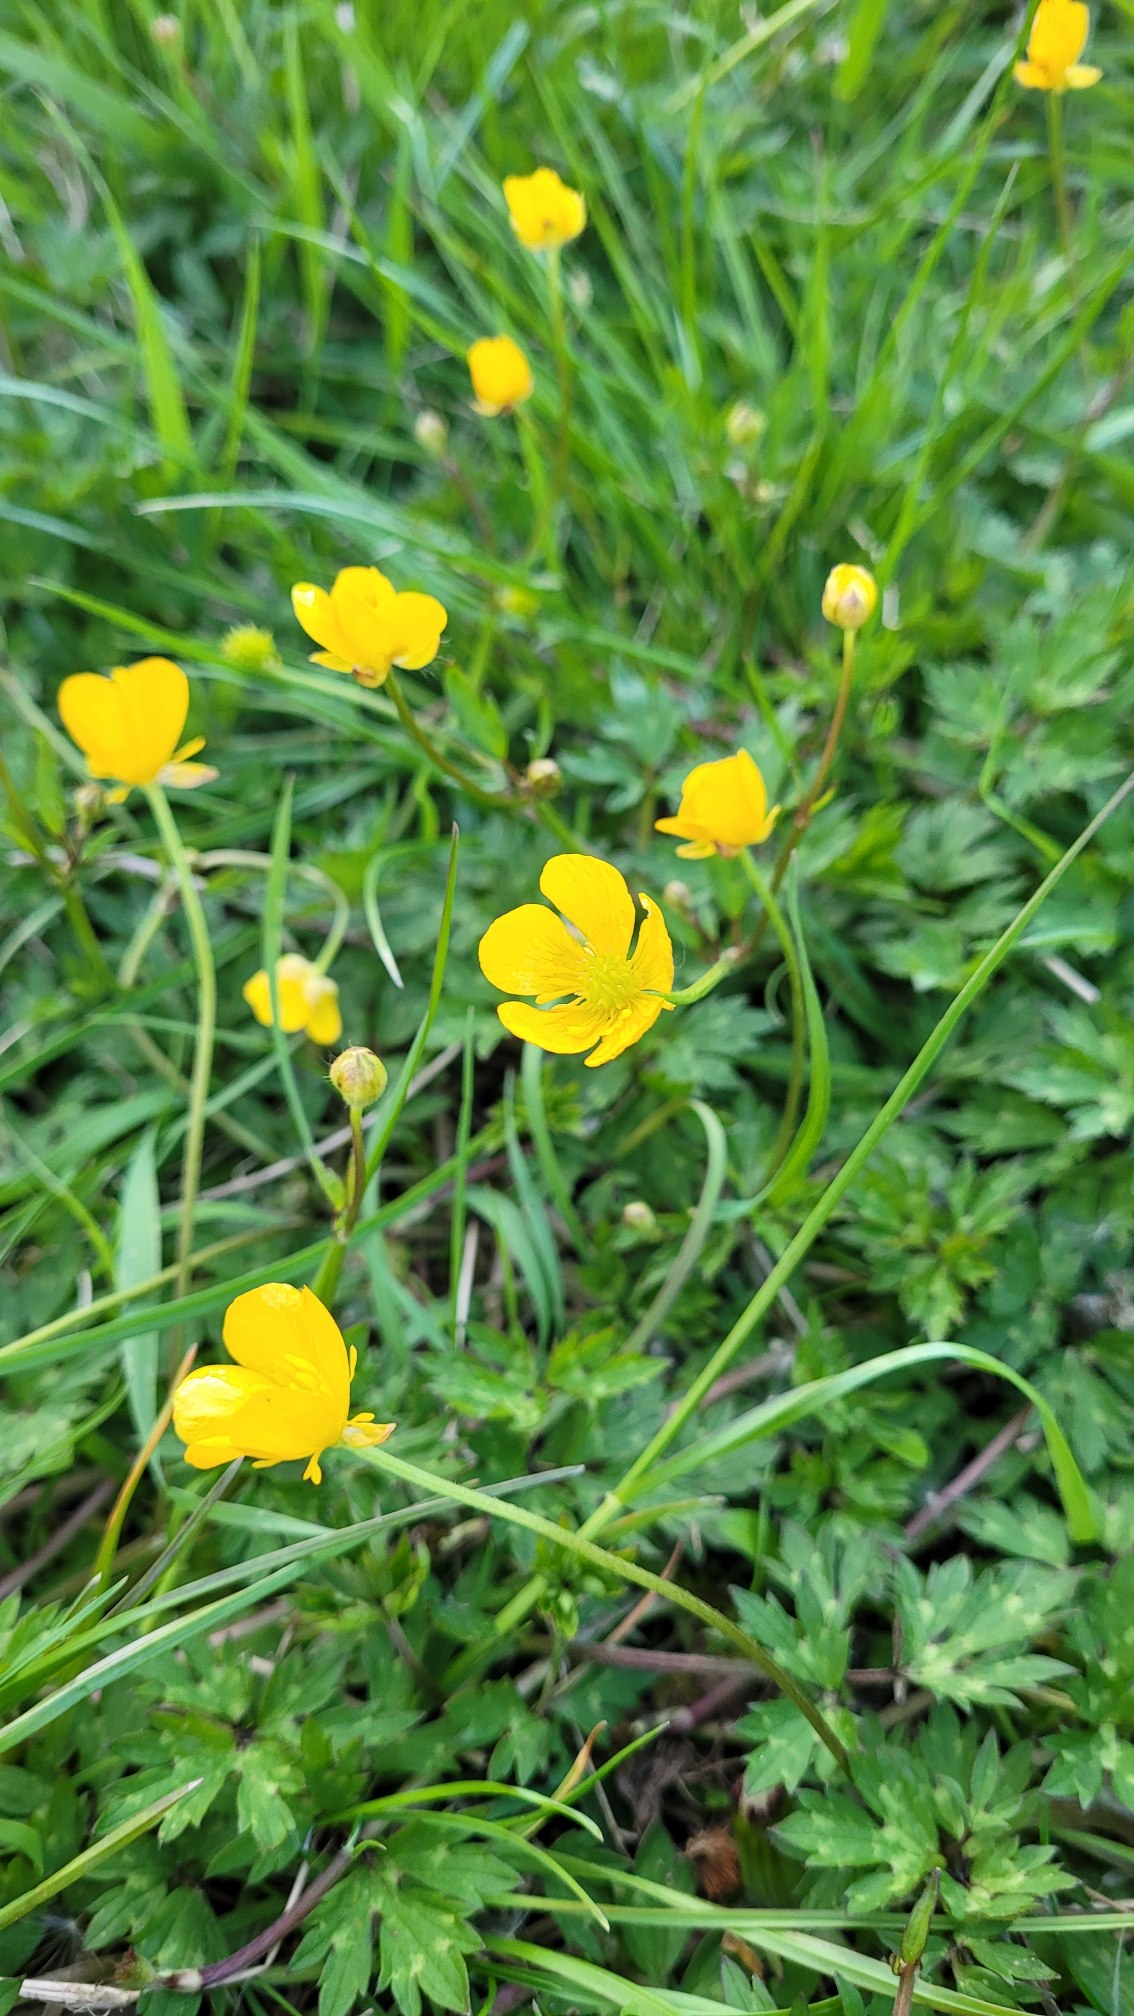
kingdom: Plantae
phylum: Tracheophyta
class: Magnoliopsida
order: Ranunculales
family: Ranunculaceae
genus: Ranunculus
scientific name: Ranunculus repens
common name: Lav ranunkel
